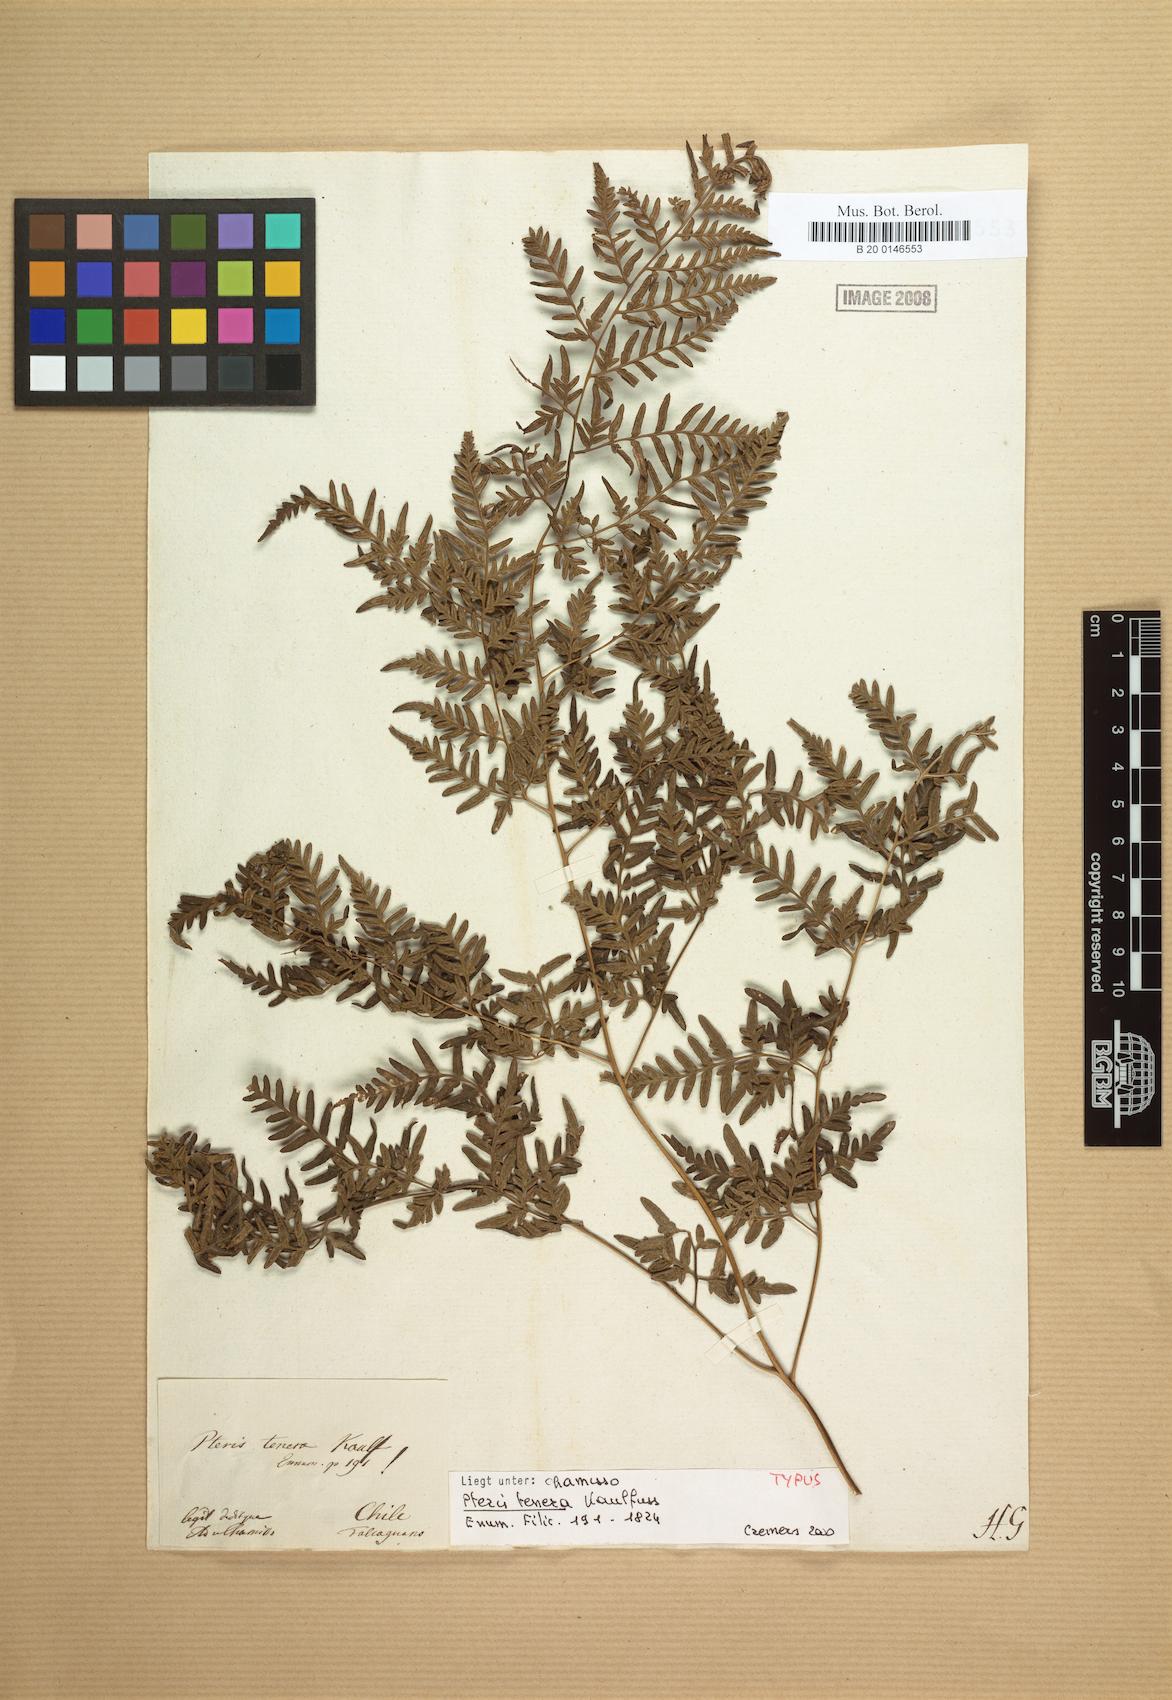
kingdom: Plantae
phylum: Tracheophyta
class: Polypodiopsida
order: Polypodiales
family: Pteridaceae
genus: Pteris
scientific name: Pteris chilensis
